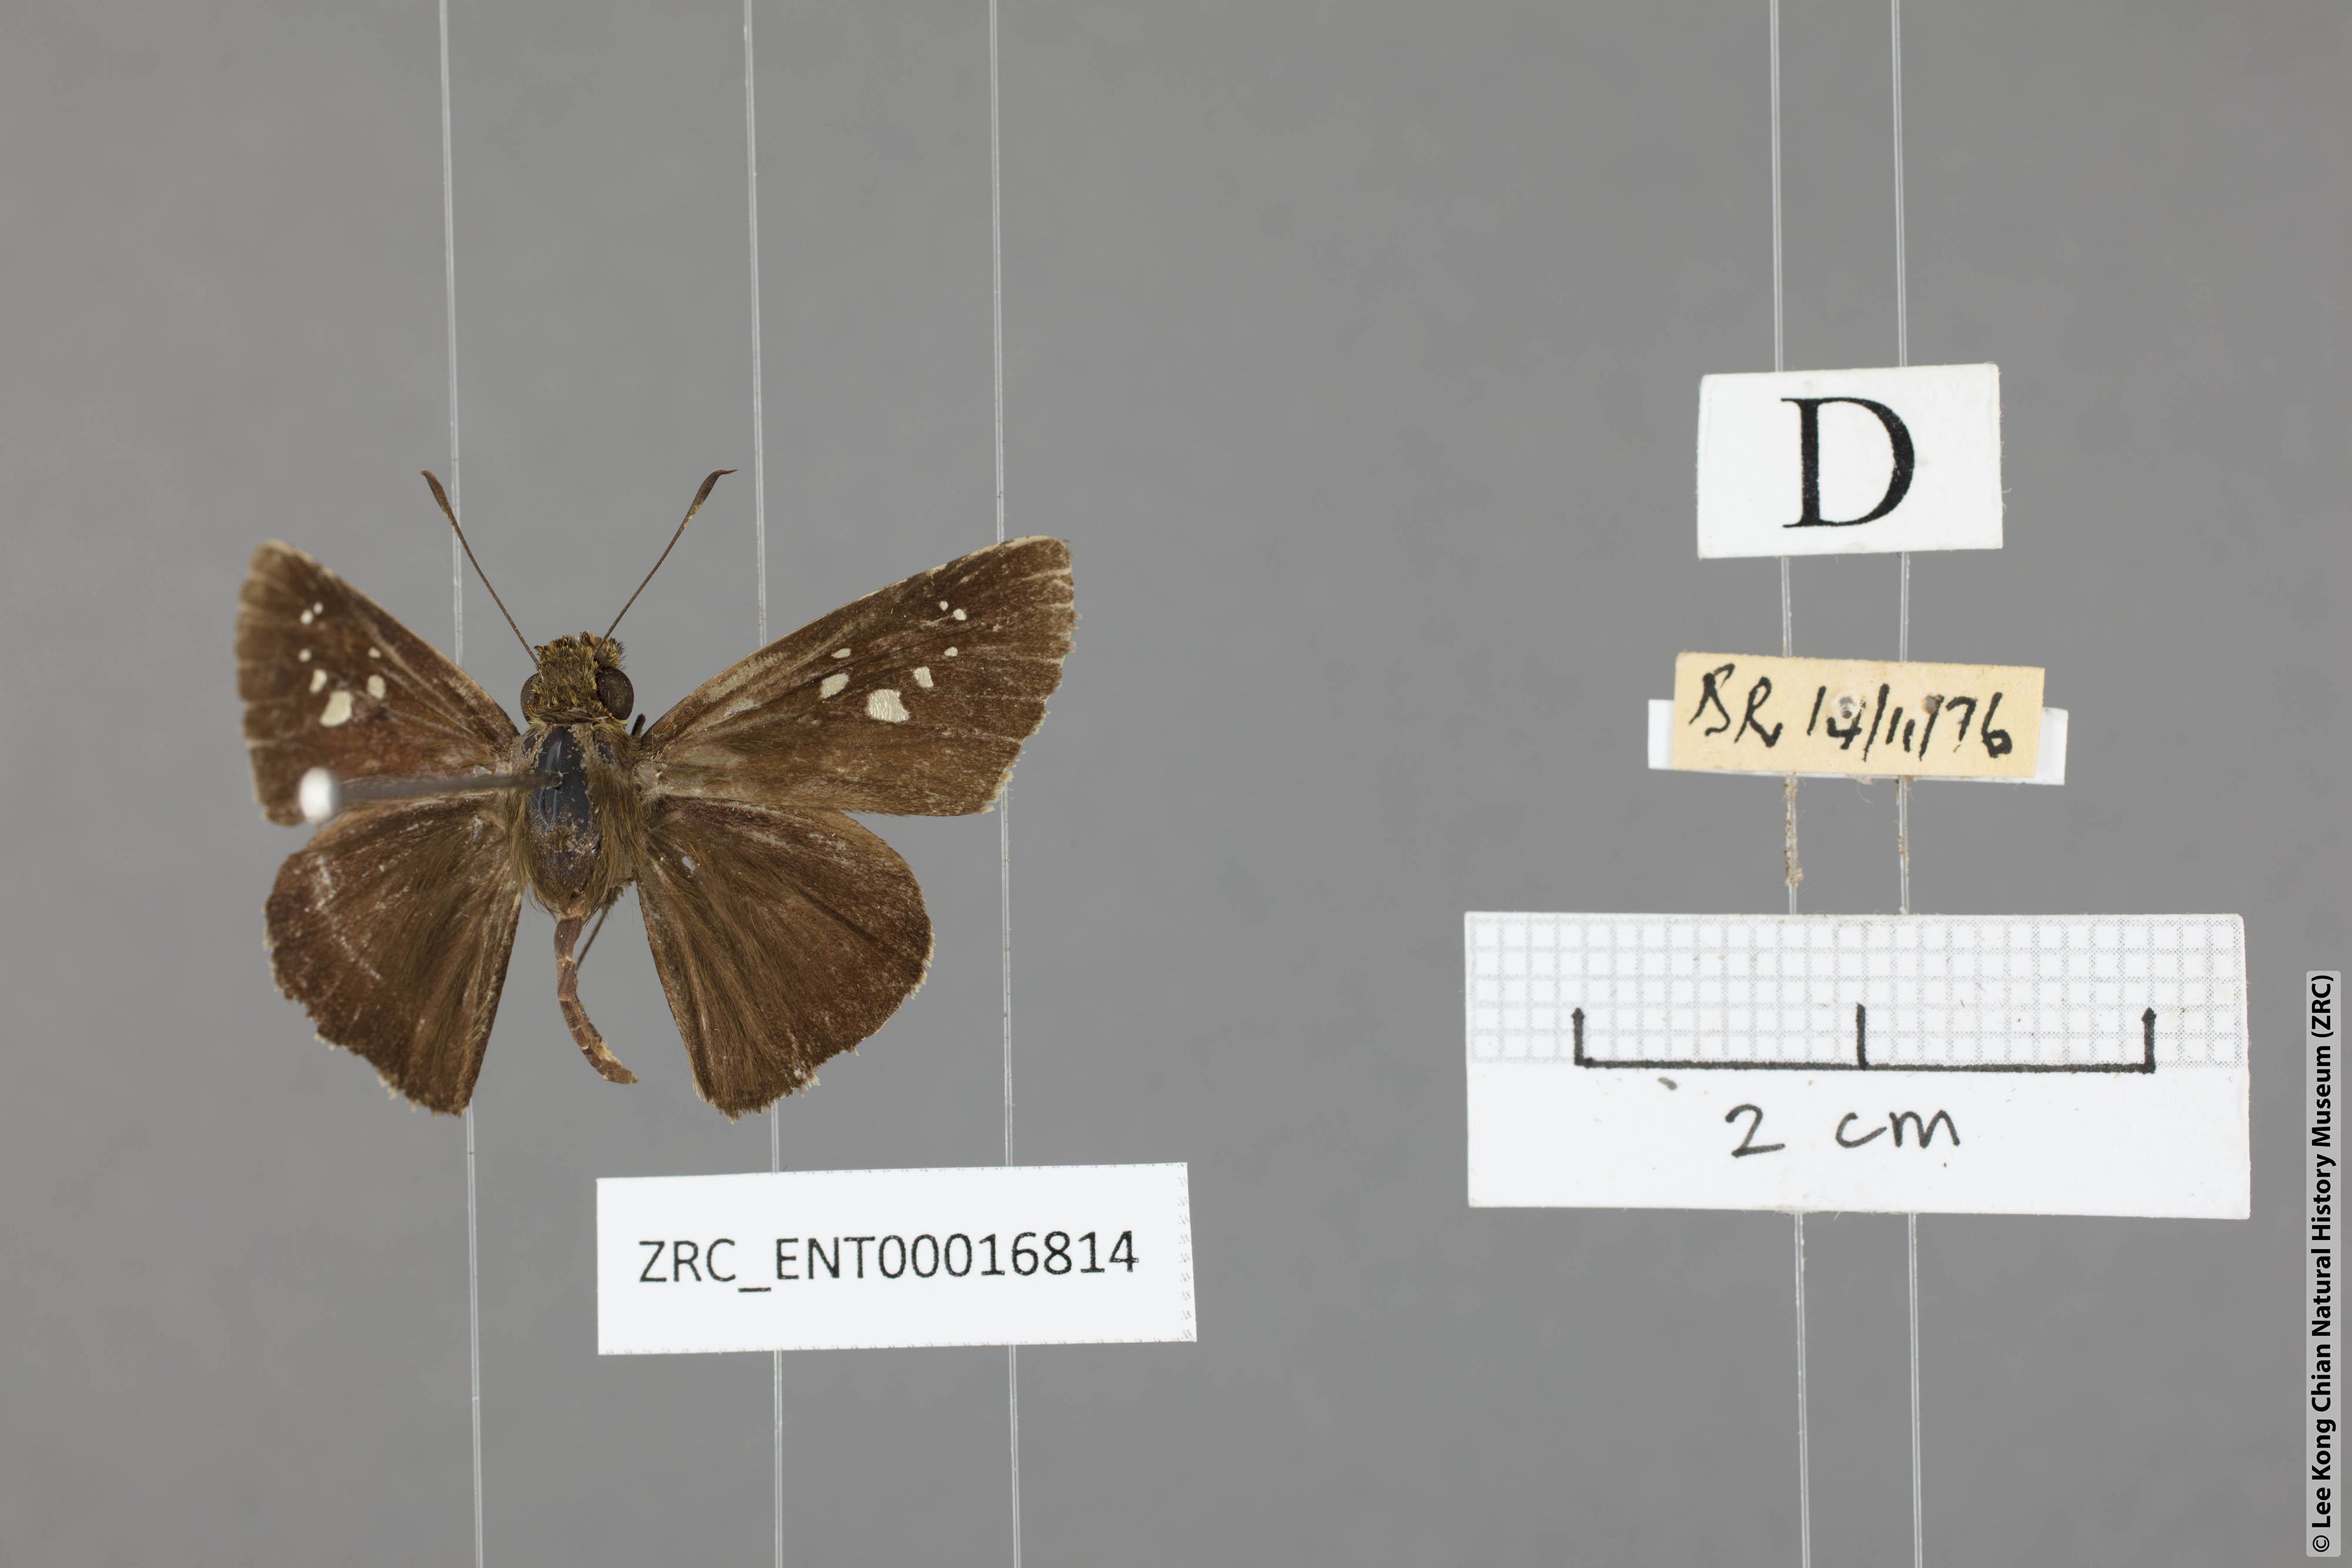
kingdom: Animalia
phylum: Arthropoda
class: Insecta
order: Lepidoptera
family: Hesperiidae
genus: Caltoris
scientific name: Caltoris cahira
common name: Colon swift
